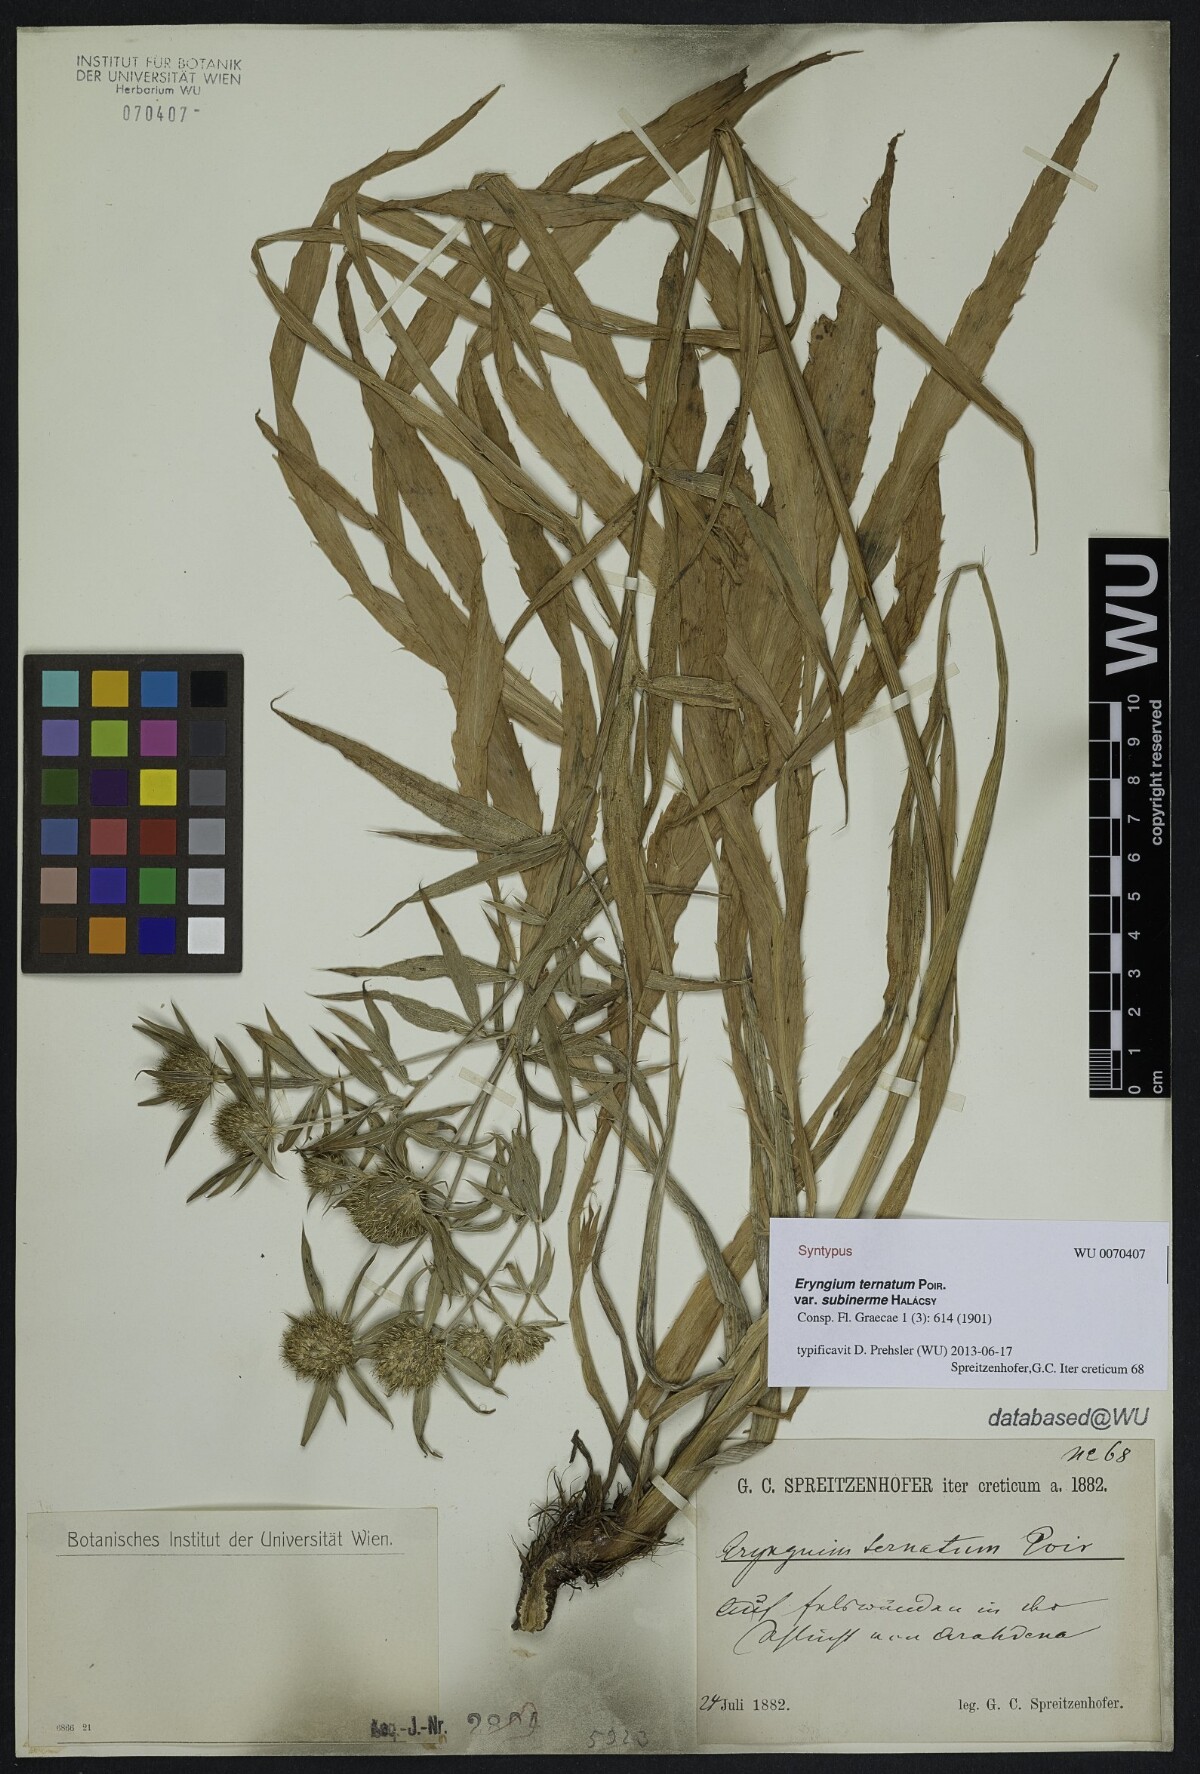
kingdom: Plantae
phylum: Tracheophyta
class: Magnoliopsida
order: Apiales
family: Apiaceae
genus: Eryngium
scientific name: Eryngium ternatum
